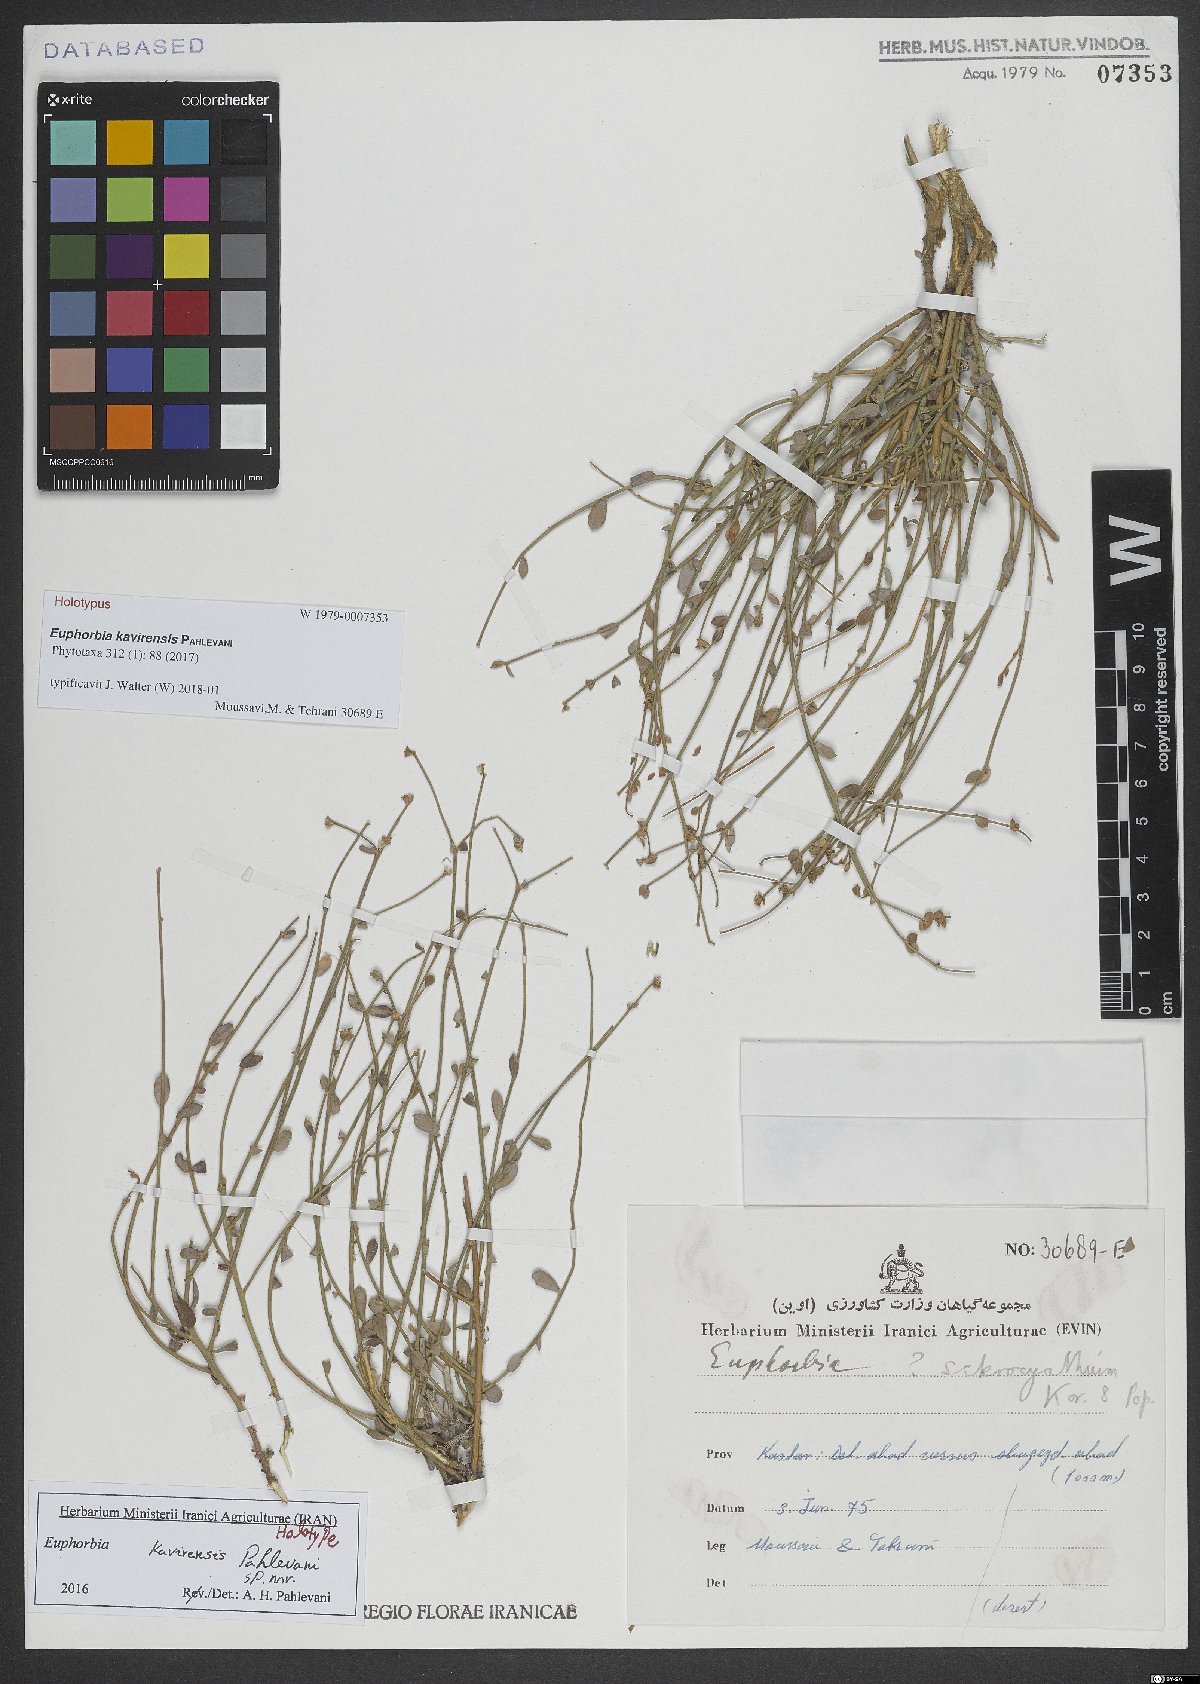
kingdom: Plantae
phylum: Tracheophyta
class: Magnoliopsida
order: Malpighiales
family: Euphorbiaceae
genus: Euphorbia
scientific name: Euphorbia kavirensis
